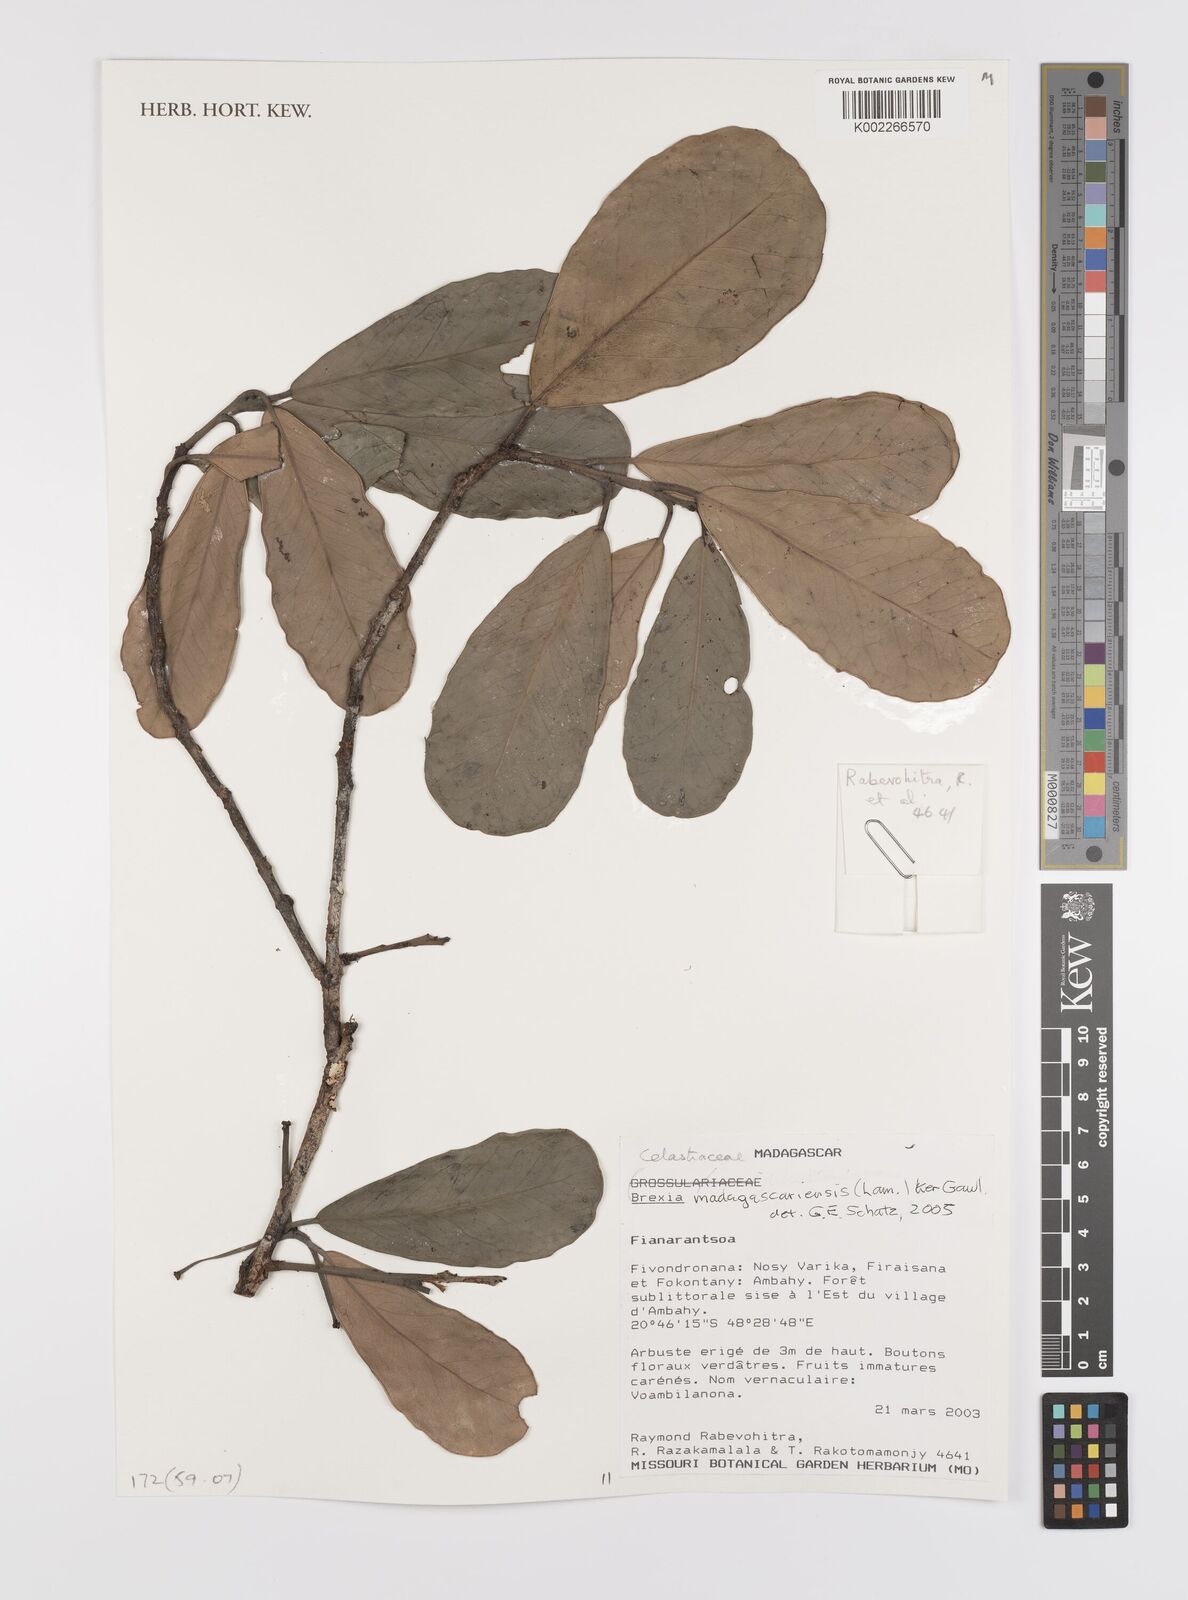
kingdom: Plantae
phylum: Tracheophyta
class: Magnoliopsida
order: Celastrales
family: Celastraceae
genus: Brexia
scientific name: Brexia madagascariensis
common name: Brexia
